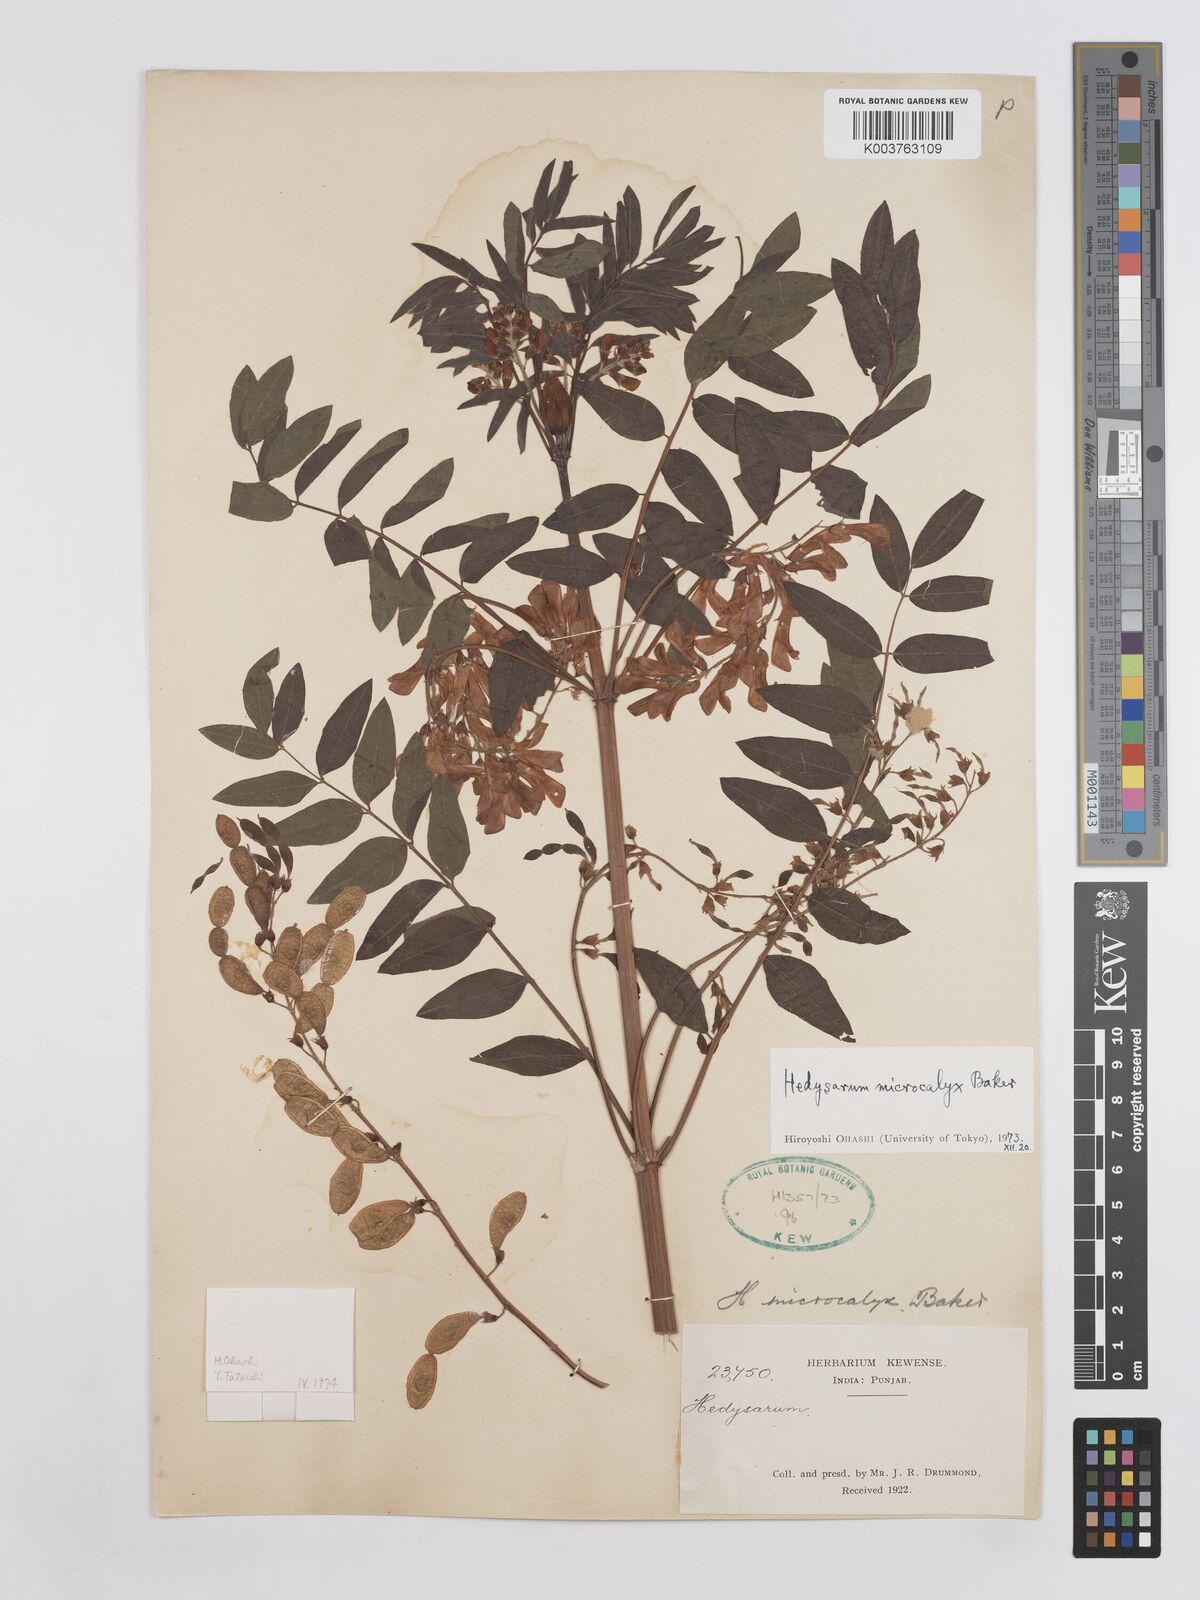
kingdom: Plantae
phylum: Tracheophyta
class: Magnoliopsida
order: Fabales
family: Fabaceae
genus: Hedysarum
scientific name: Hedysarum microcalyx
